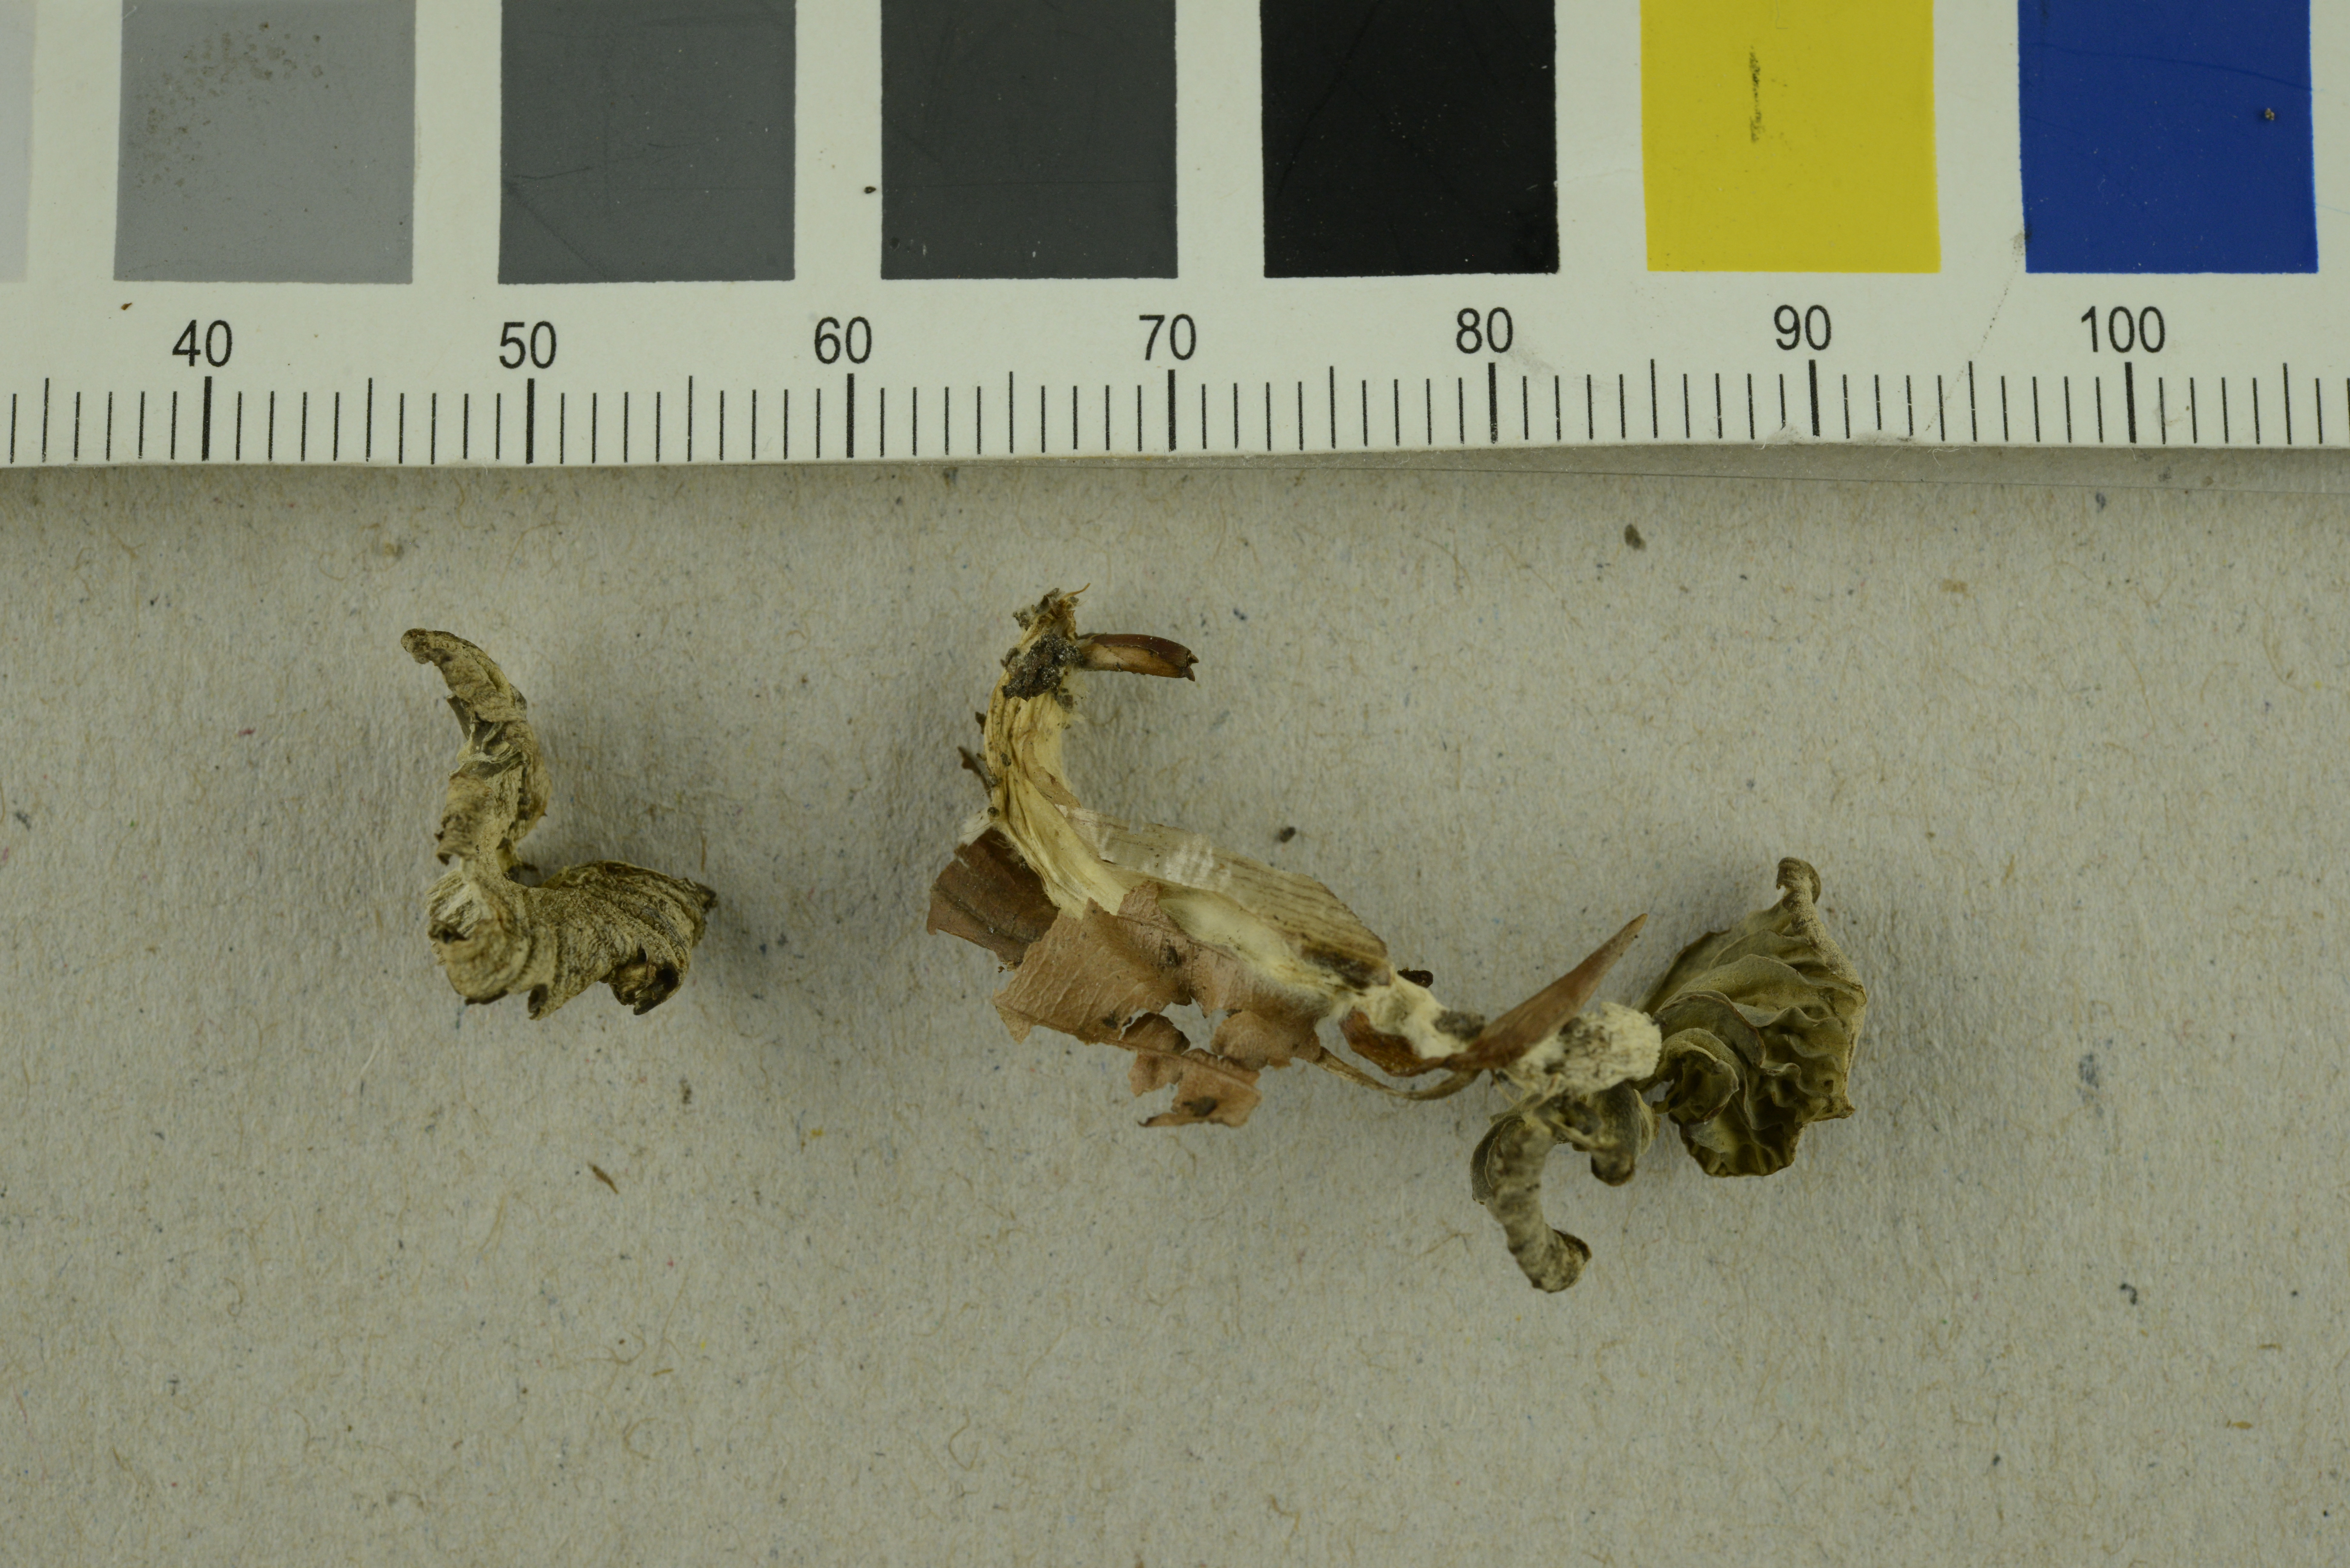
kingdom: Fungi
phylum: Basidiomycota
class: Agaricomycetes
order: Agaricales
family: Lyophyllaceae
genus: Asterophora
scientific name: Asterophora parasitica
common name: Silky piggyback
